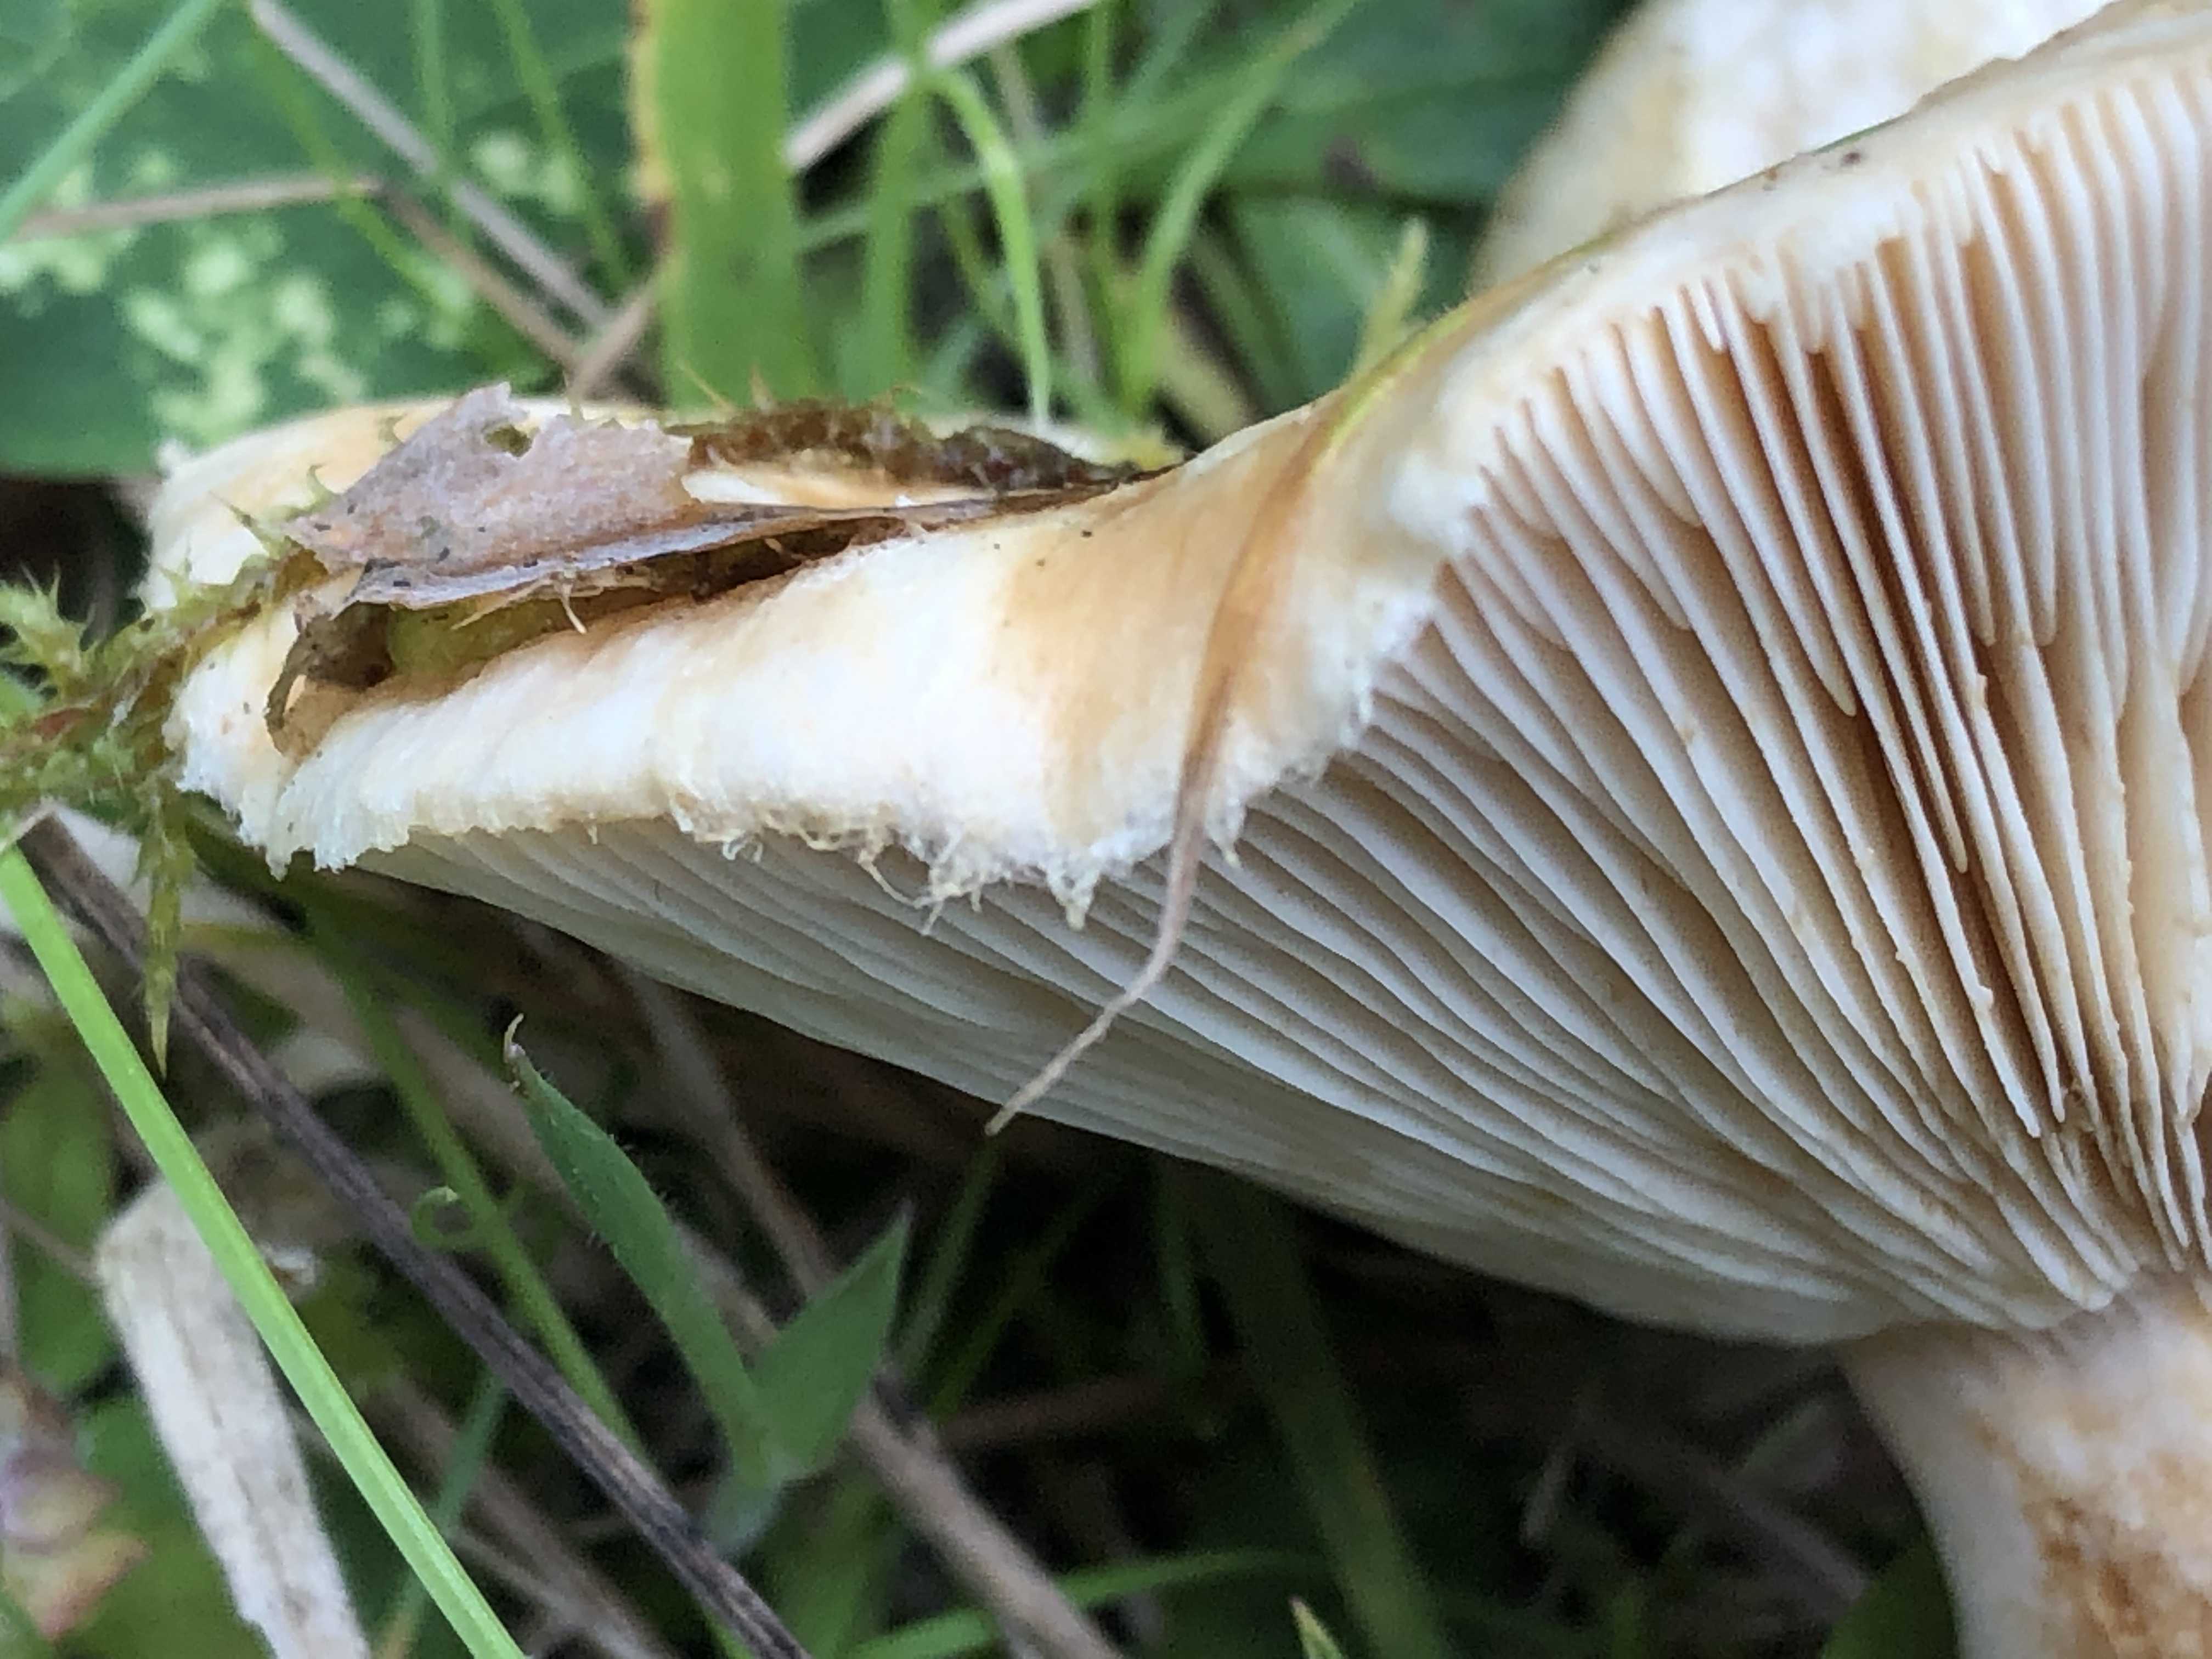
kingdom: Fungi
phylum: Basidiomycota
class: Agaricomycetes
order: Russulales
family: Russulaceae
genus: Lactarius
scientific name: Lactarius pubescens
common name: dunet mælkehat
